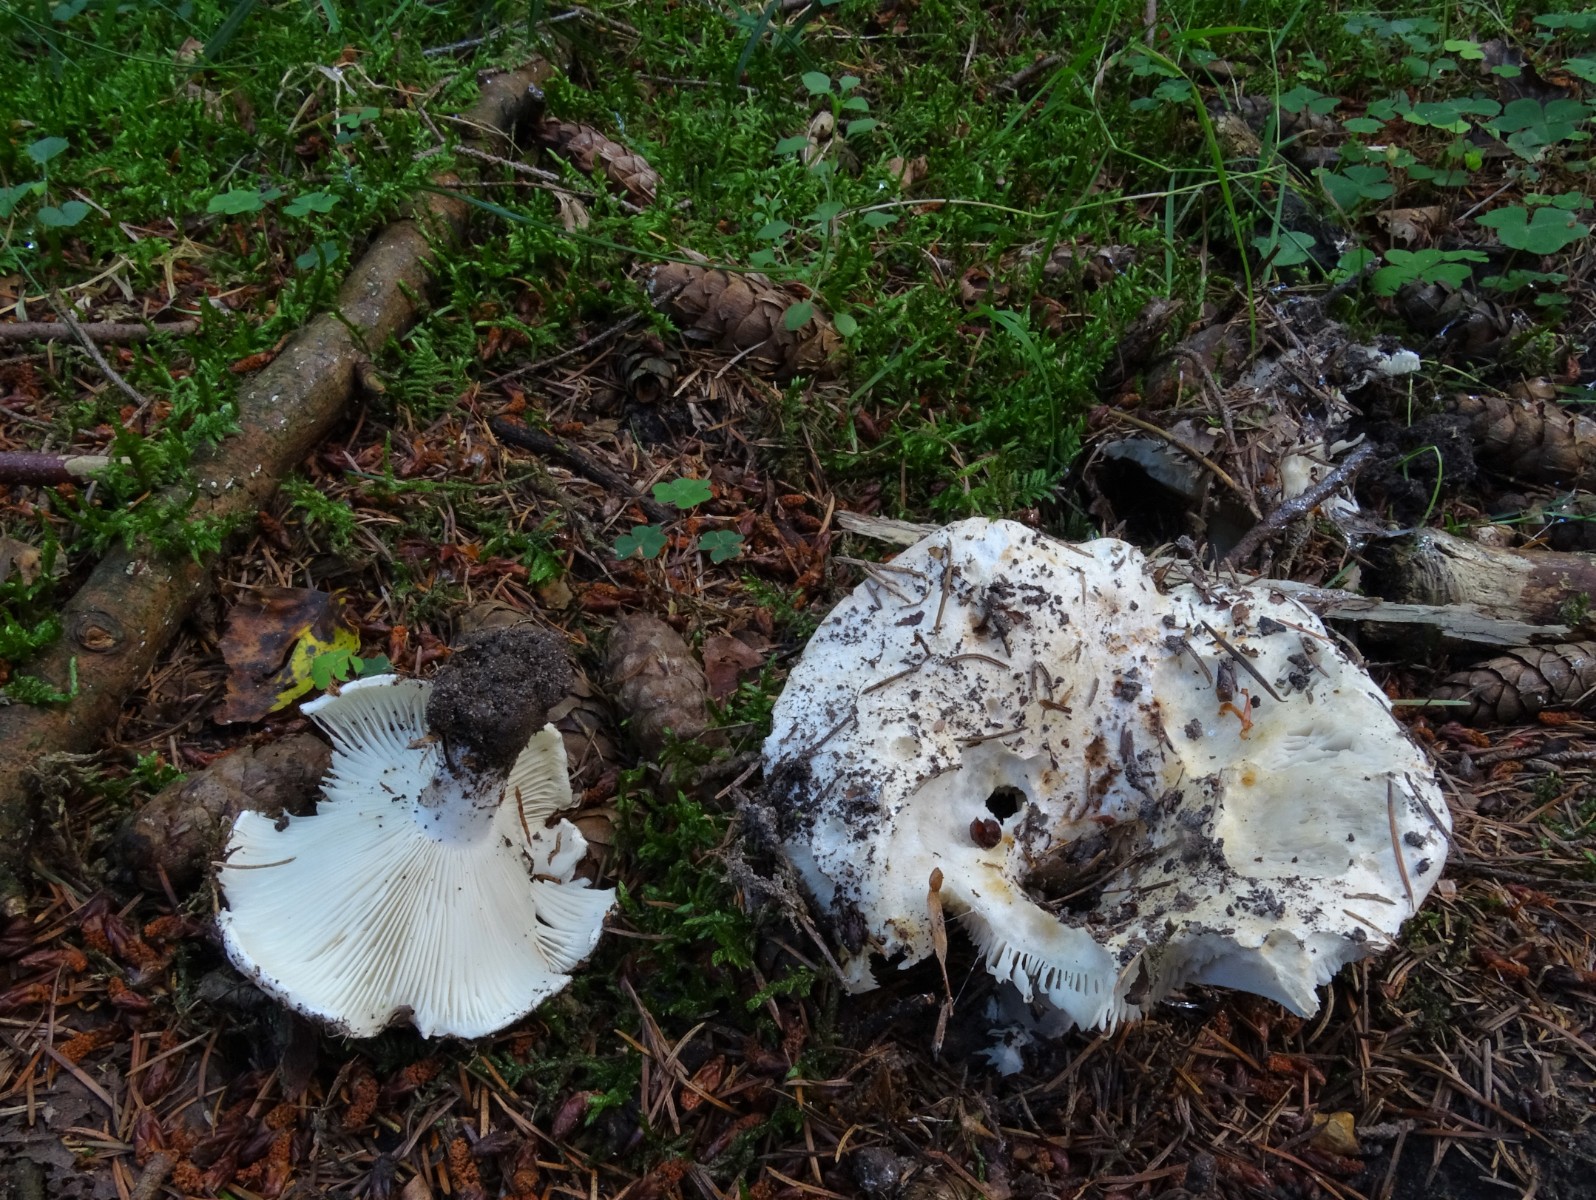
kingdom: Fungi
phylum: Basidiomycota
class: Agaricomycetes
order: Russulales
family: Russulaceae
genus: Russula
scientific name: Russula chloroides
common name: grønhalset tragt-skørhat
